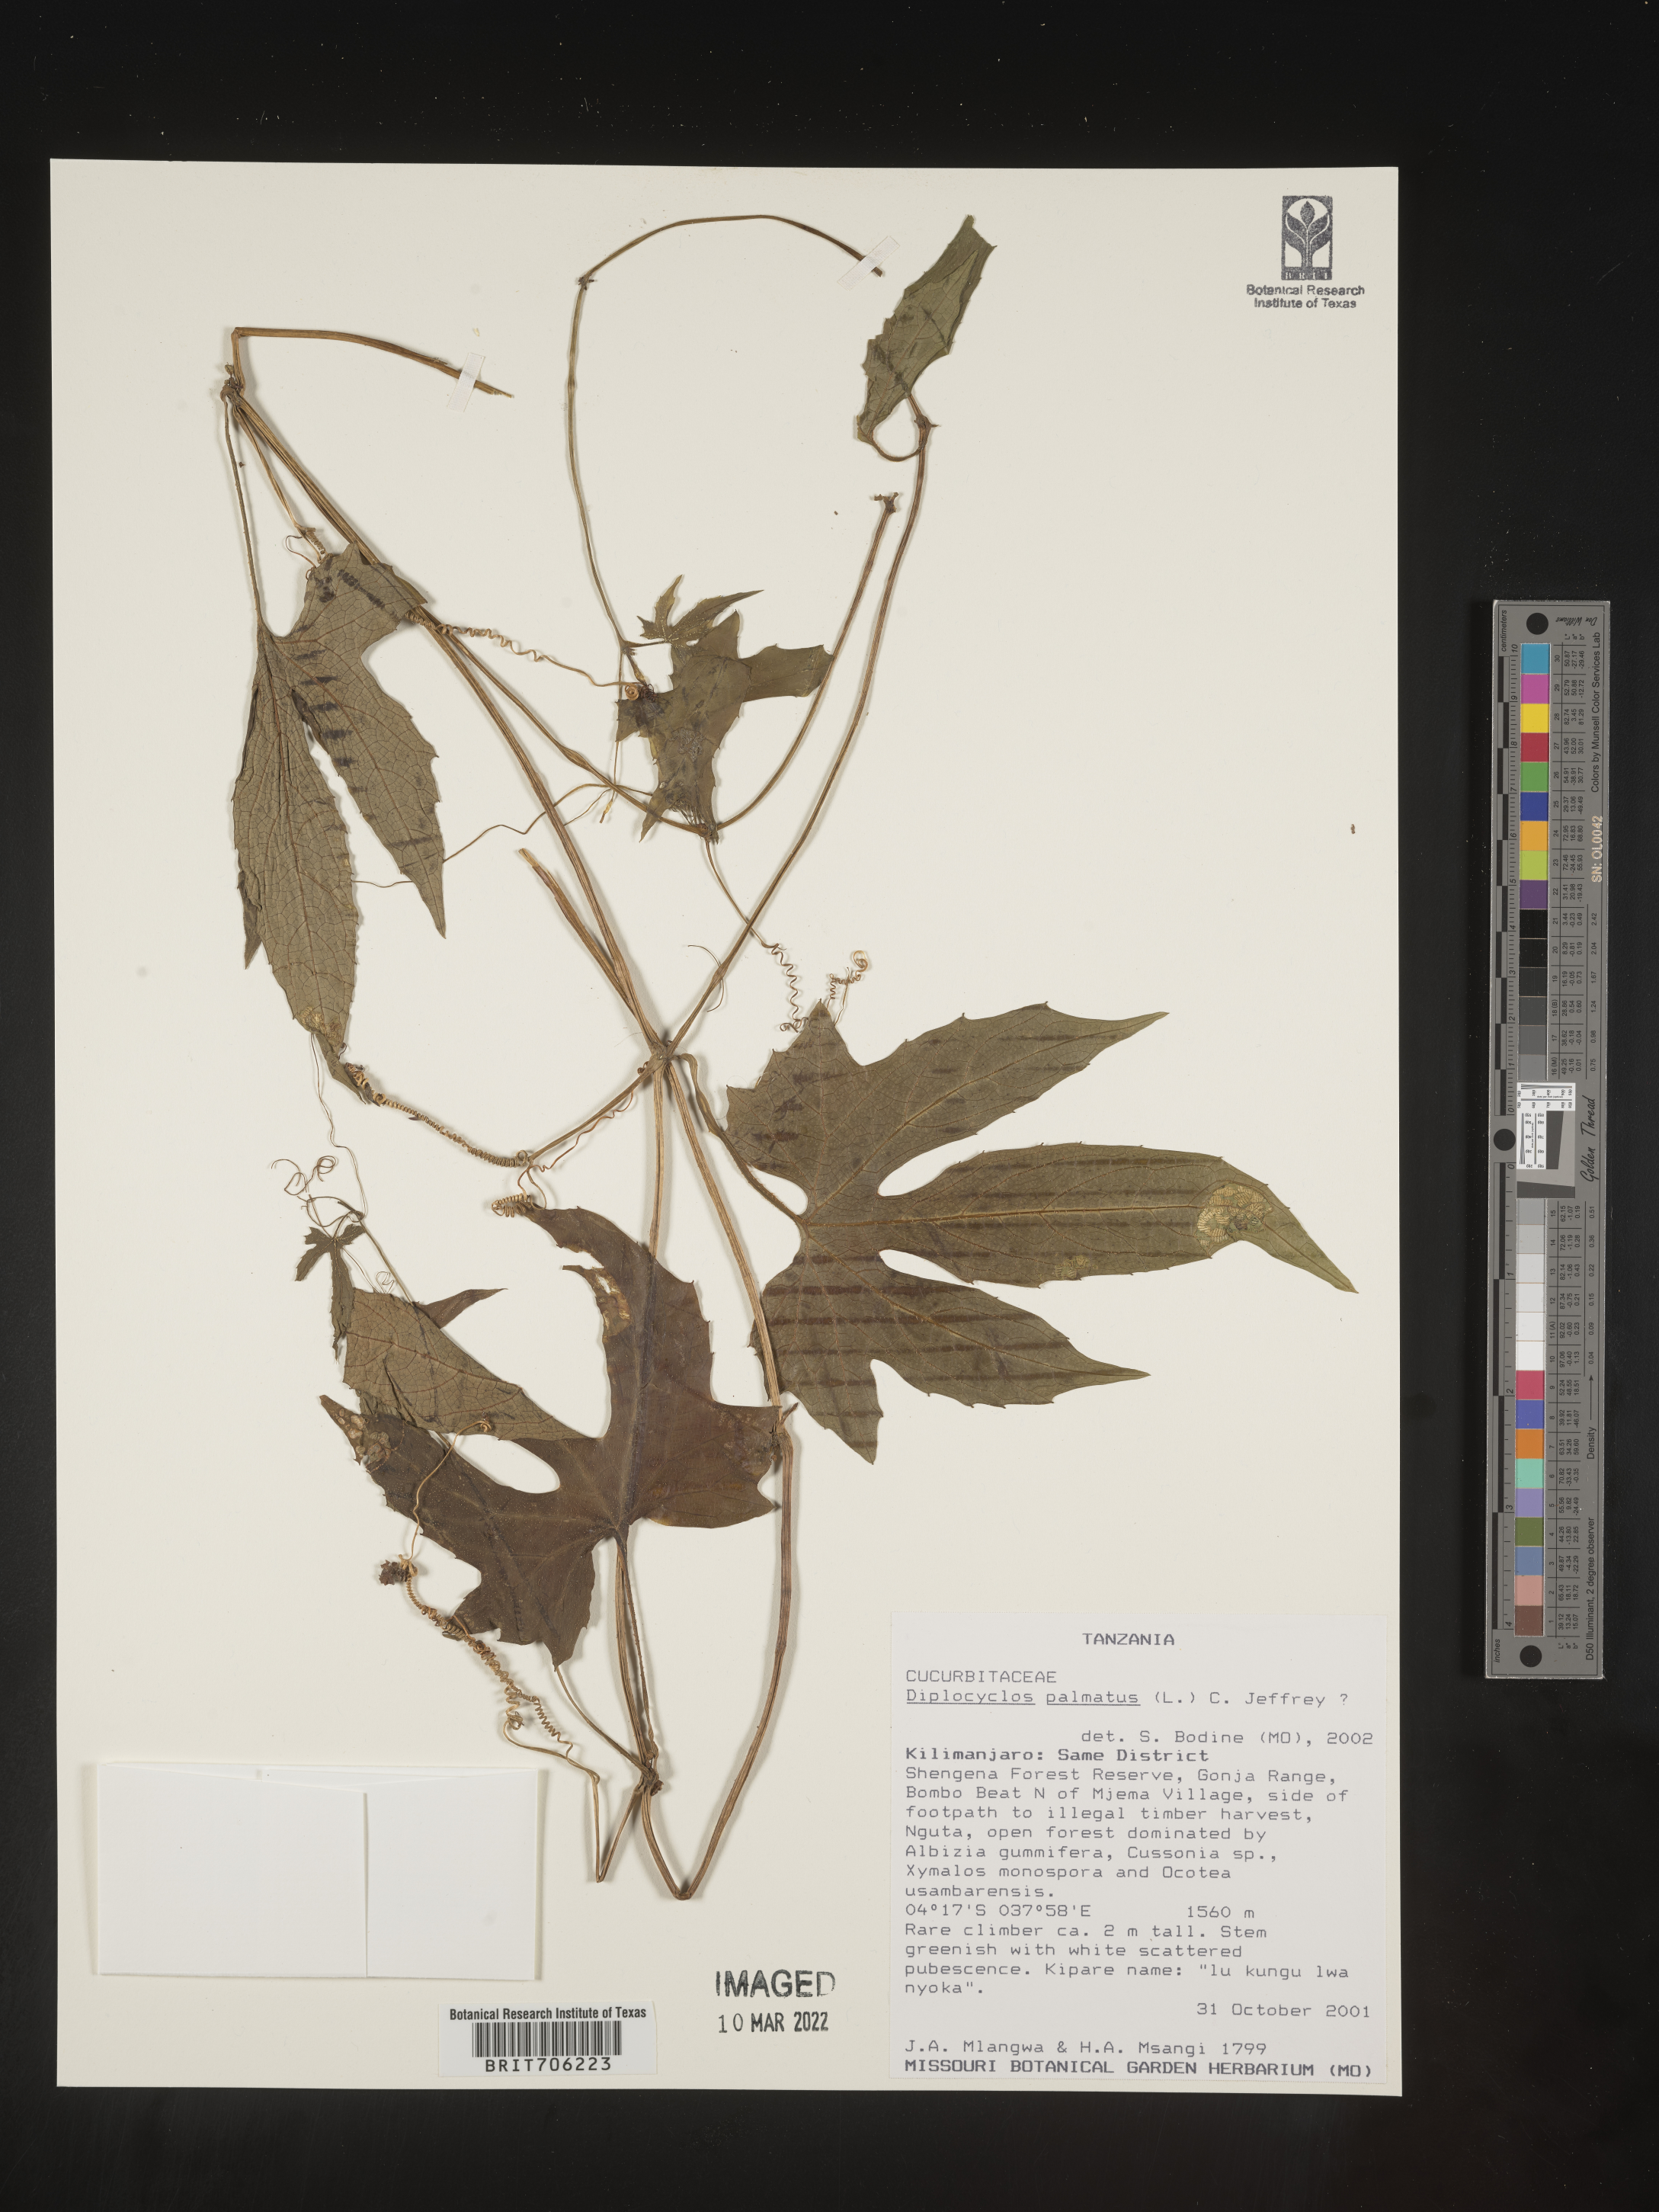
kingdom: Plantae
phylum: Tracheophyta
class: Magnoliopsida
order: Cucurbitales
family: Cucurbitaceae
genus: Diplocyclos
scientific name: Diplocyclos
